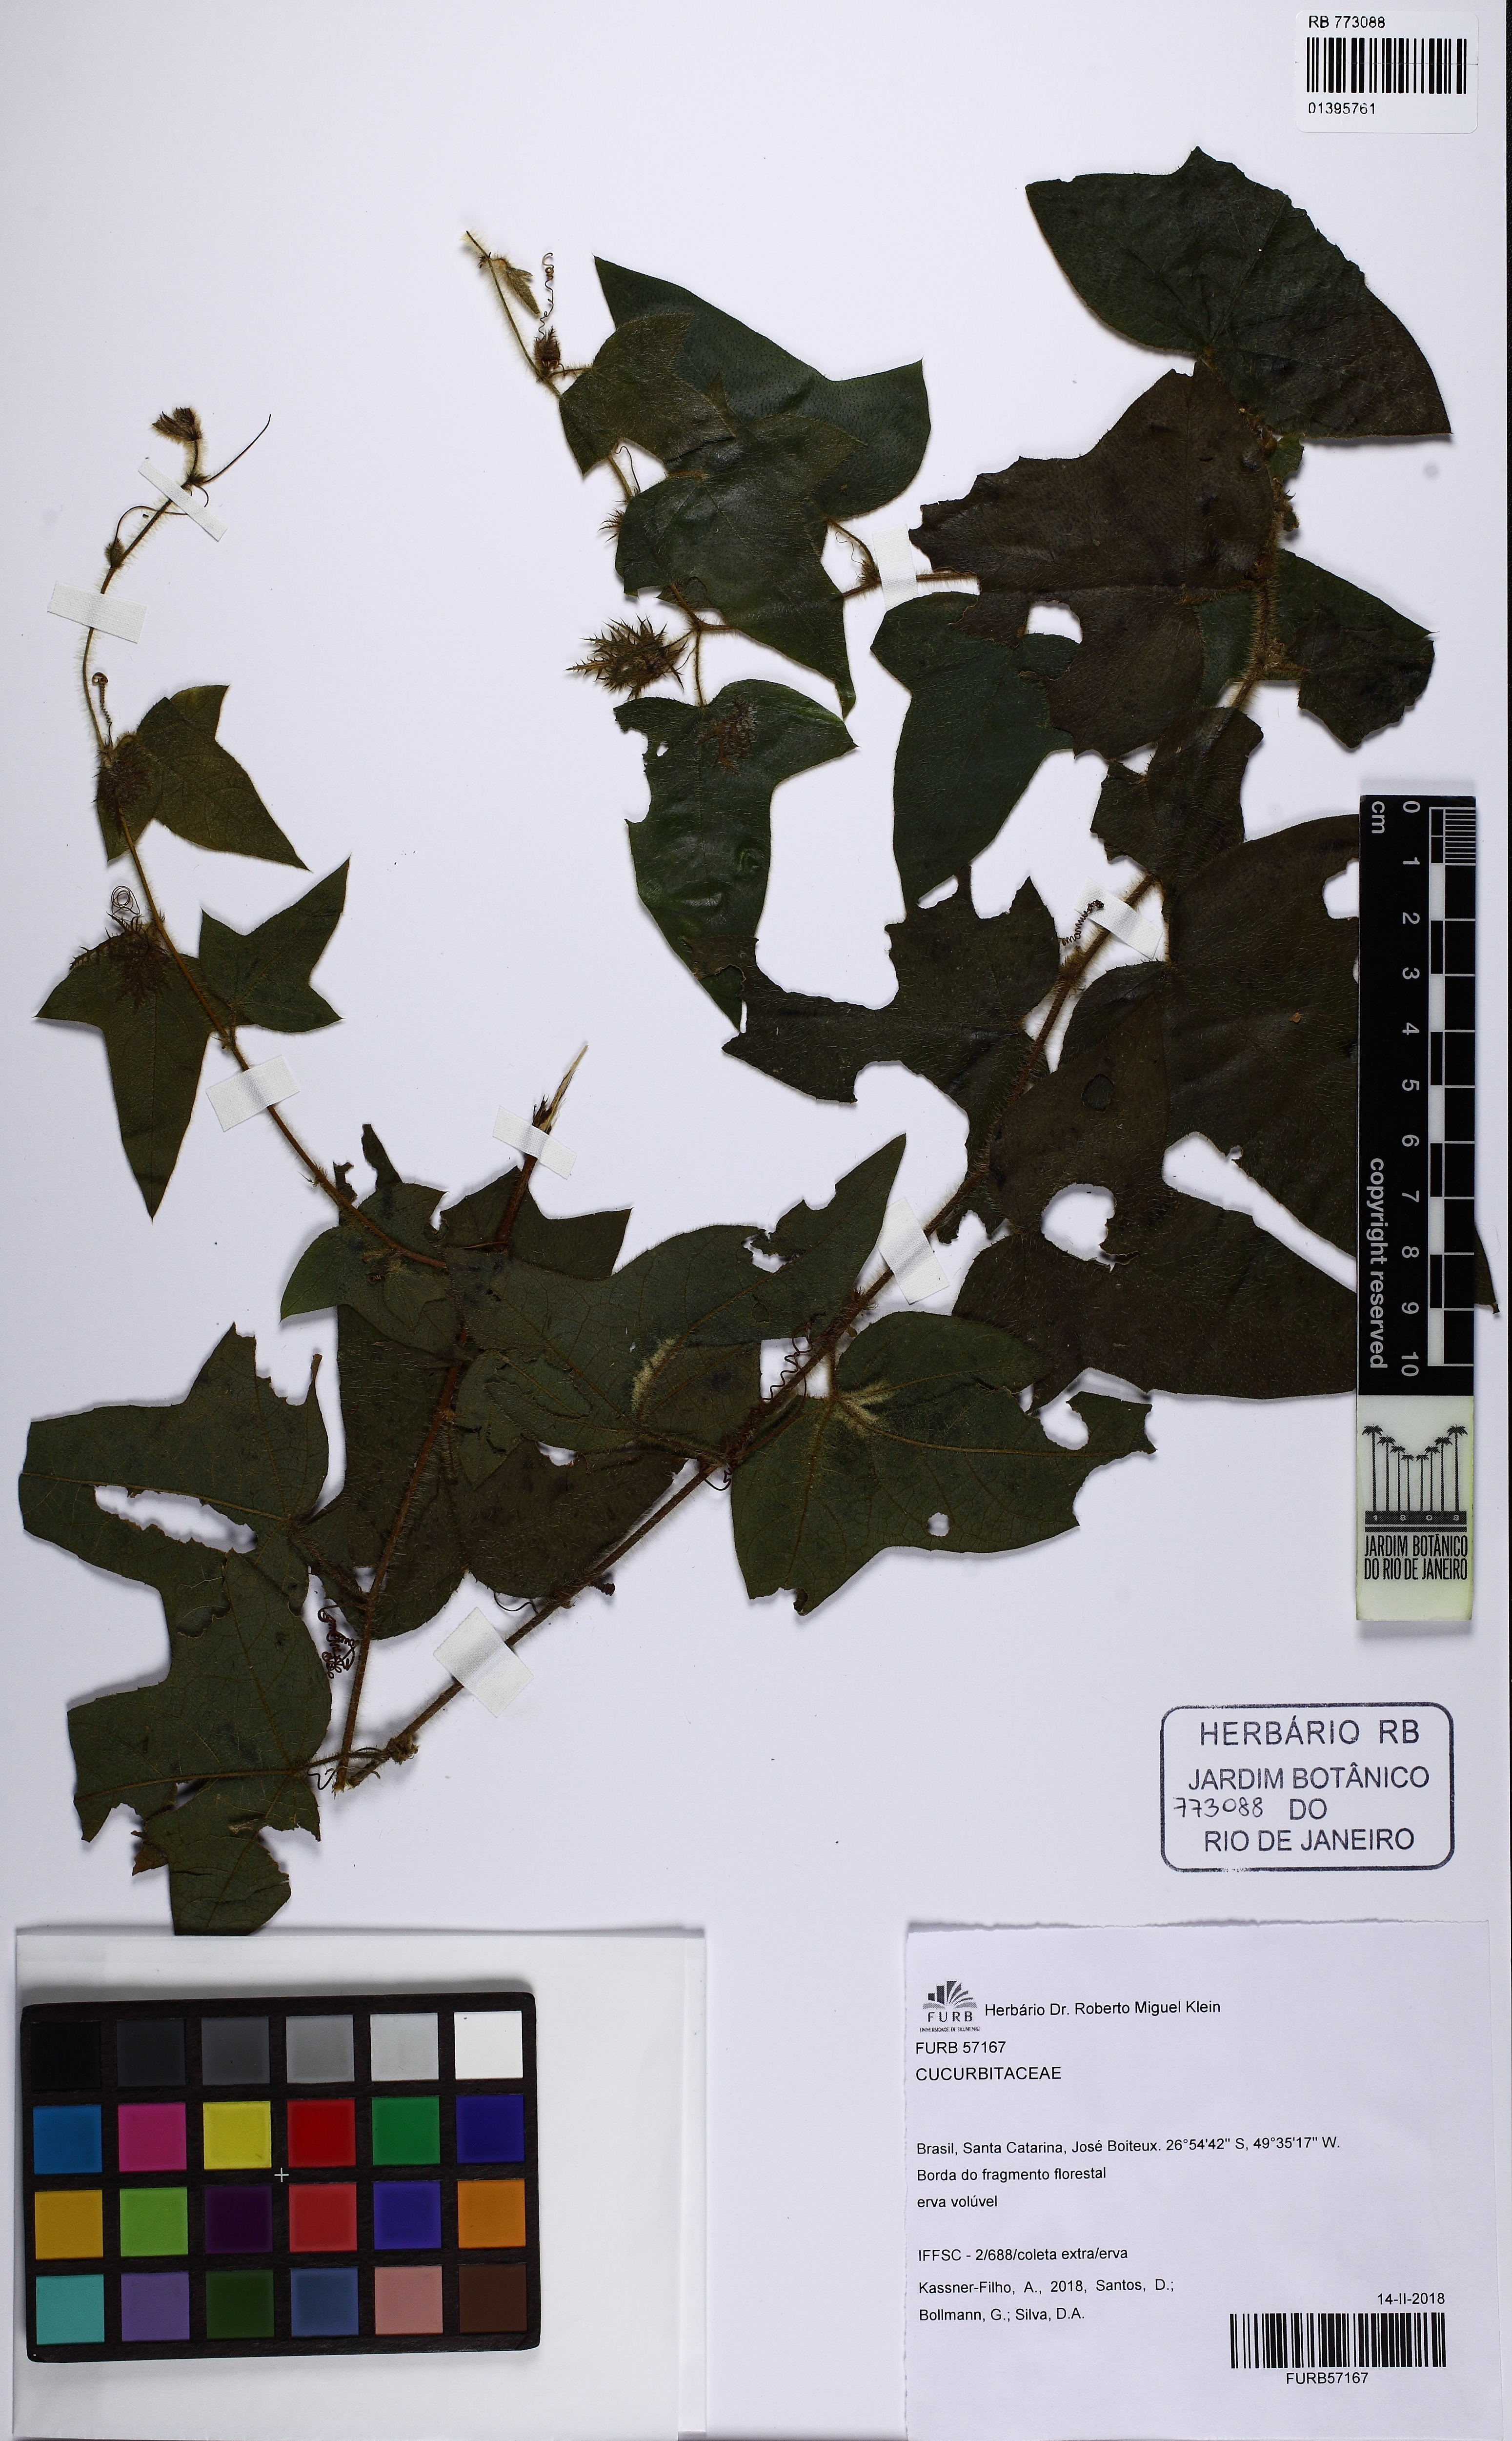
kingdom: Plantae
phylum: Tracheophyta
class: Magnoliopsida
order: Cucurbitales
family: Cucurbitaceae
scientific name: Cucurbitaceae
